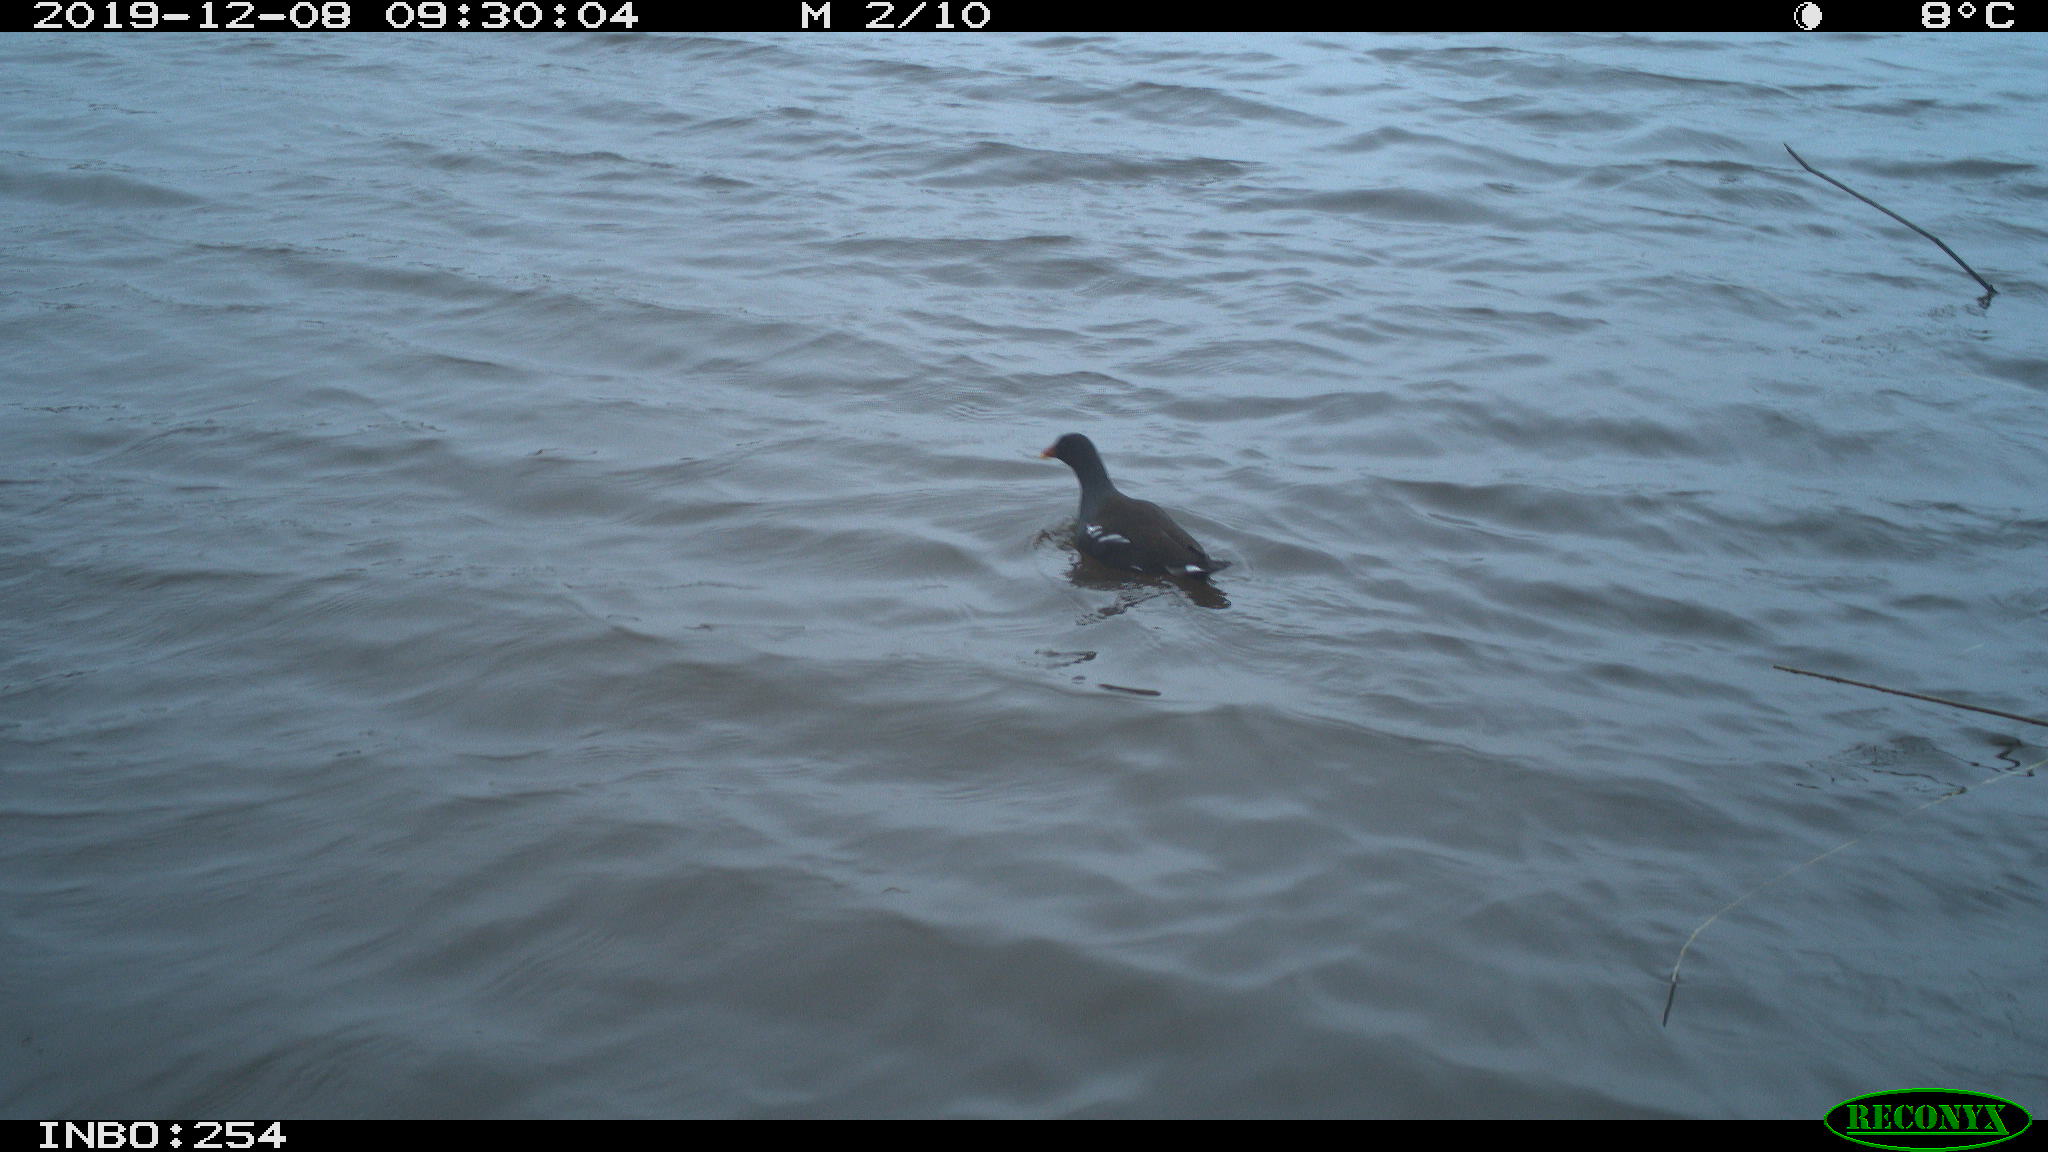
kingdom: Animalia
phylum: Chordata
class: Aves
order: Gruiformes
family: Rallidae
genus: Gallinula
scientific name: Gallinula chloropus
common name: Common moorhen
